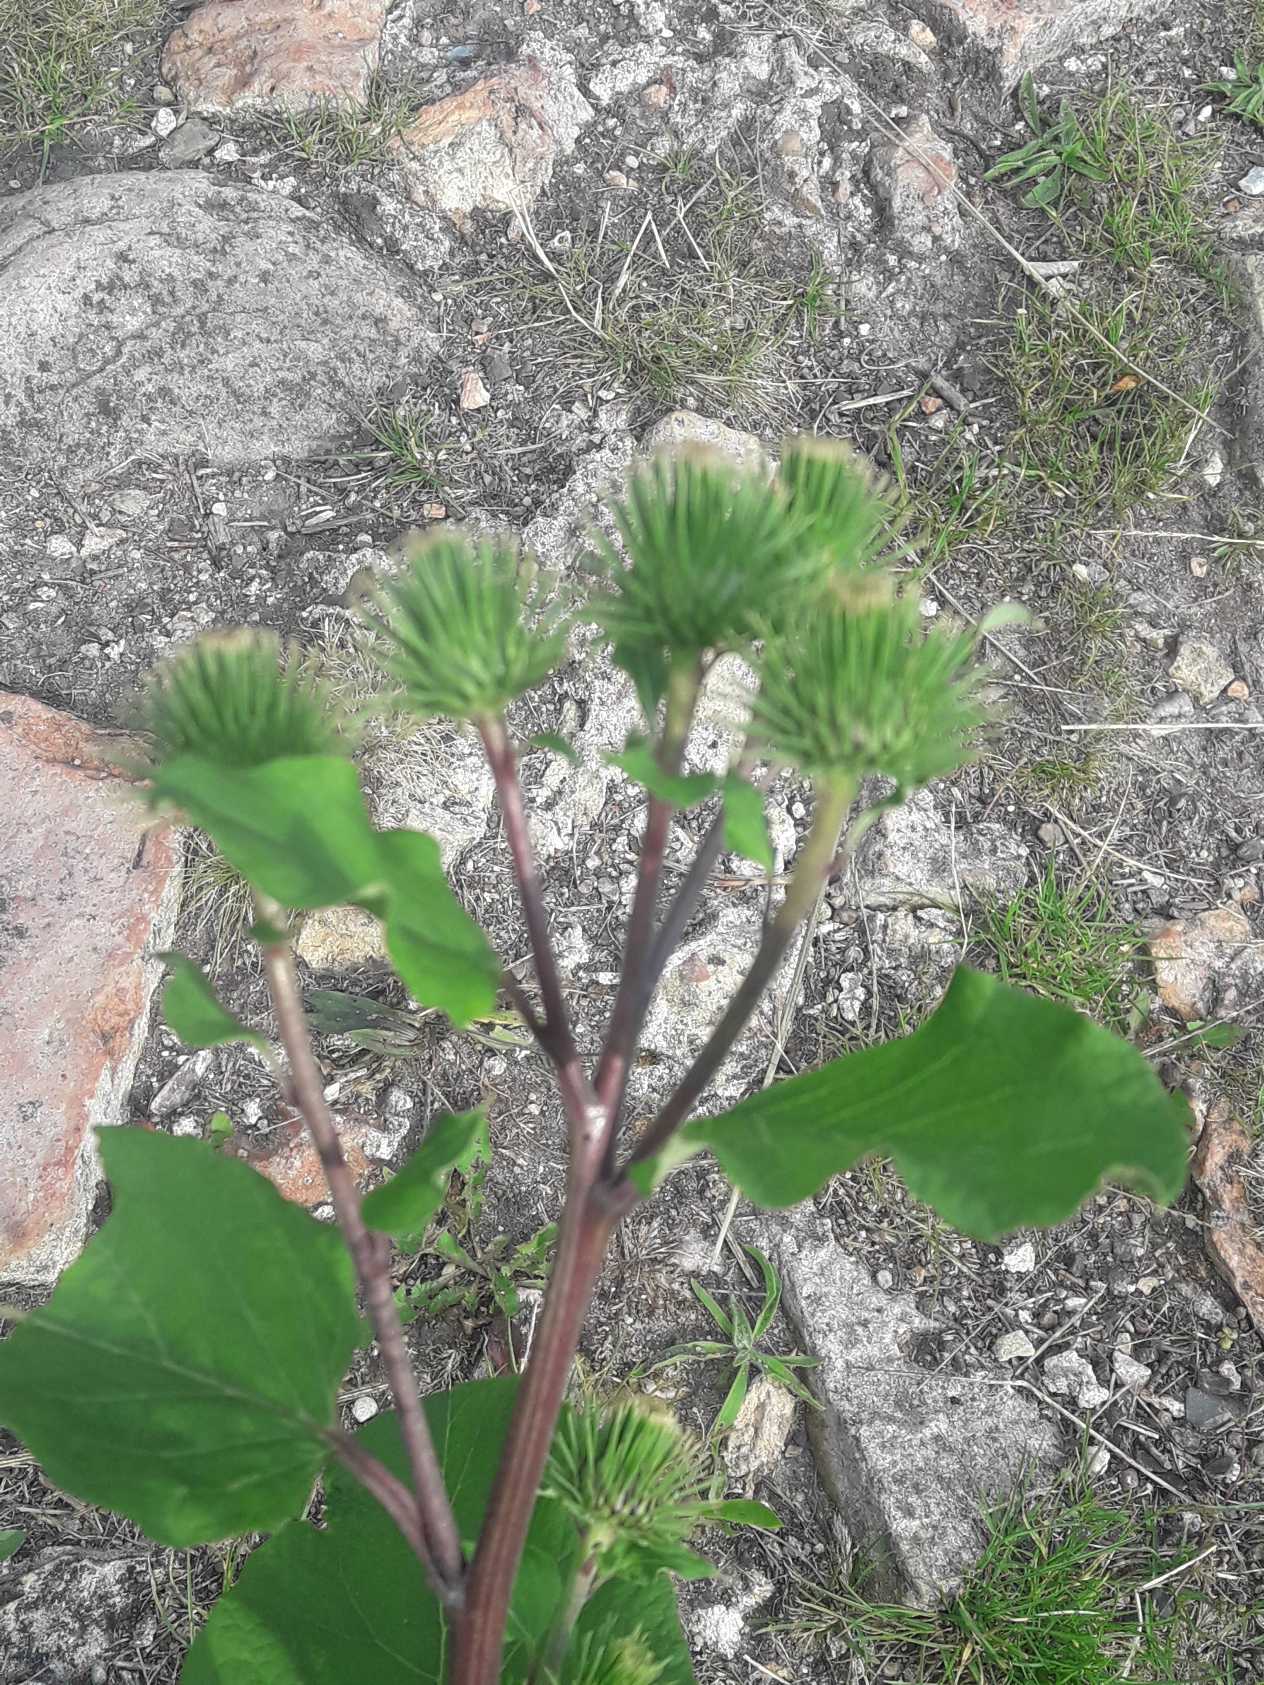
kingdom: Plantae
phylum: Tracheophyta
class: Magnoliopsida
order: Asterales
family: Asteraceae
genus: Arctium
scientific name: Arctium lappa
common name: Glat burre
